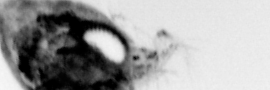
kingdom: Animalia
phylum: Arthropoda
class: Malacostraca
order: Decapoda
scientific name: Decapoda
